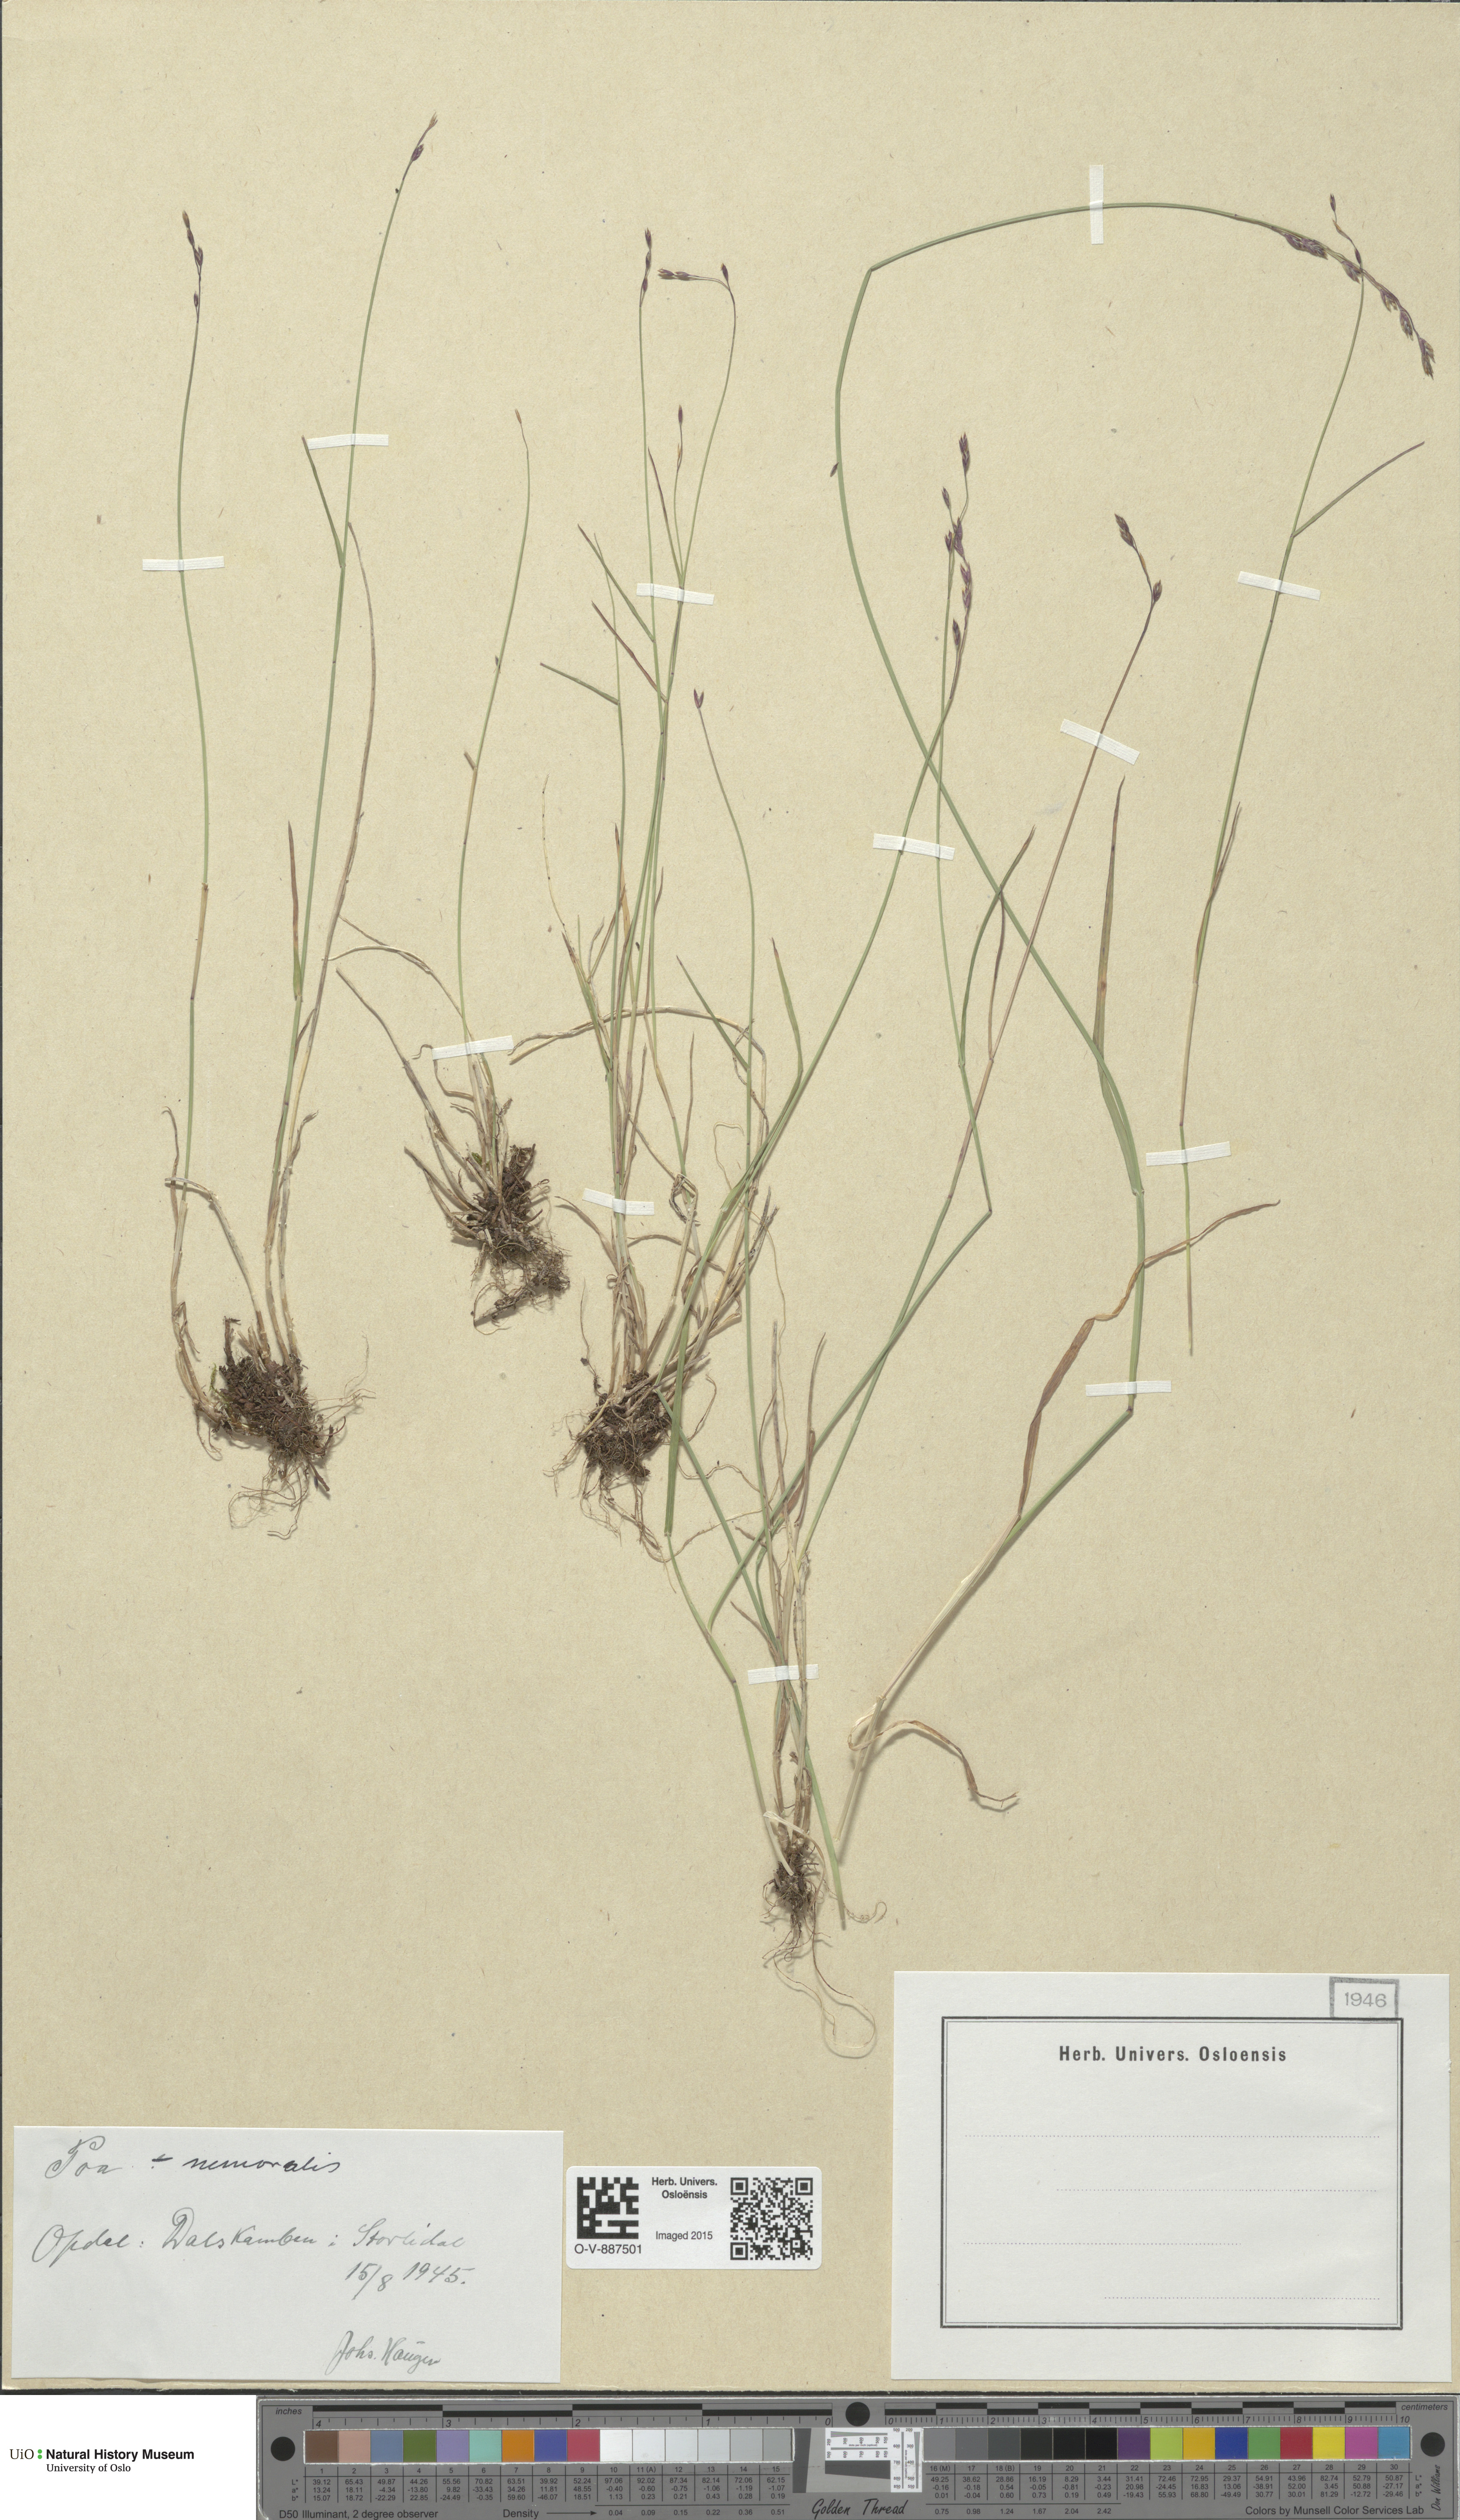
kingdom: Plantae
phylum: Tracheophyta
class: Liliopsida
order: Poales
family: Poaceae
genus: Poa
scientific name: Poa nemoralis
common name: Wood bluegrass
